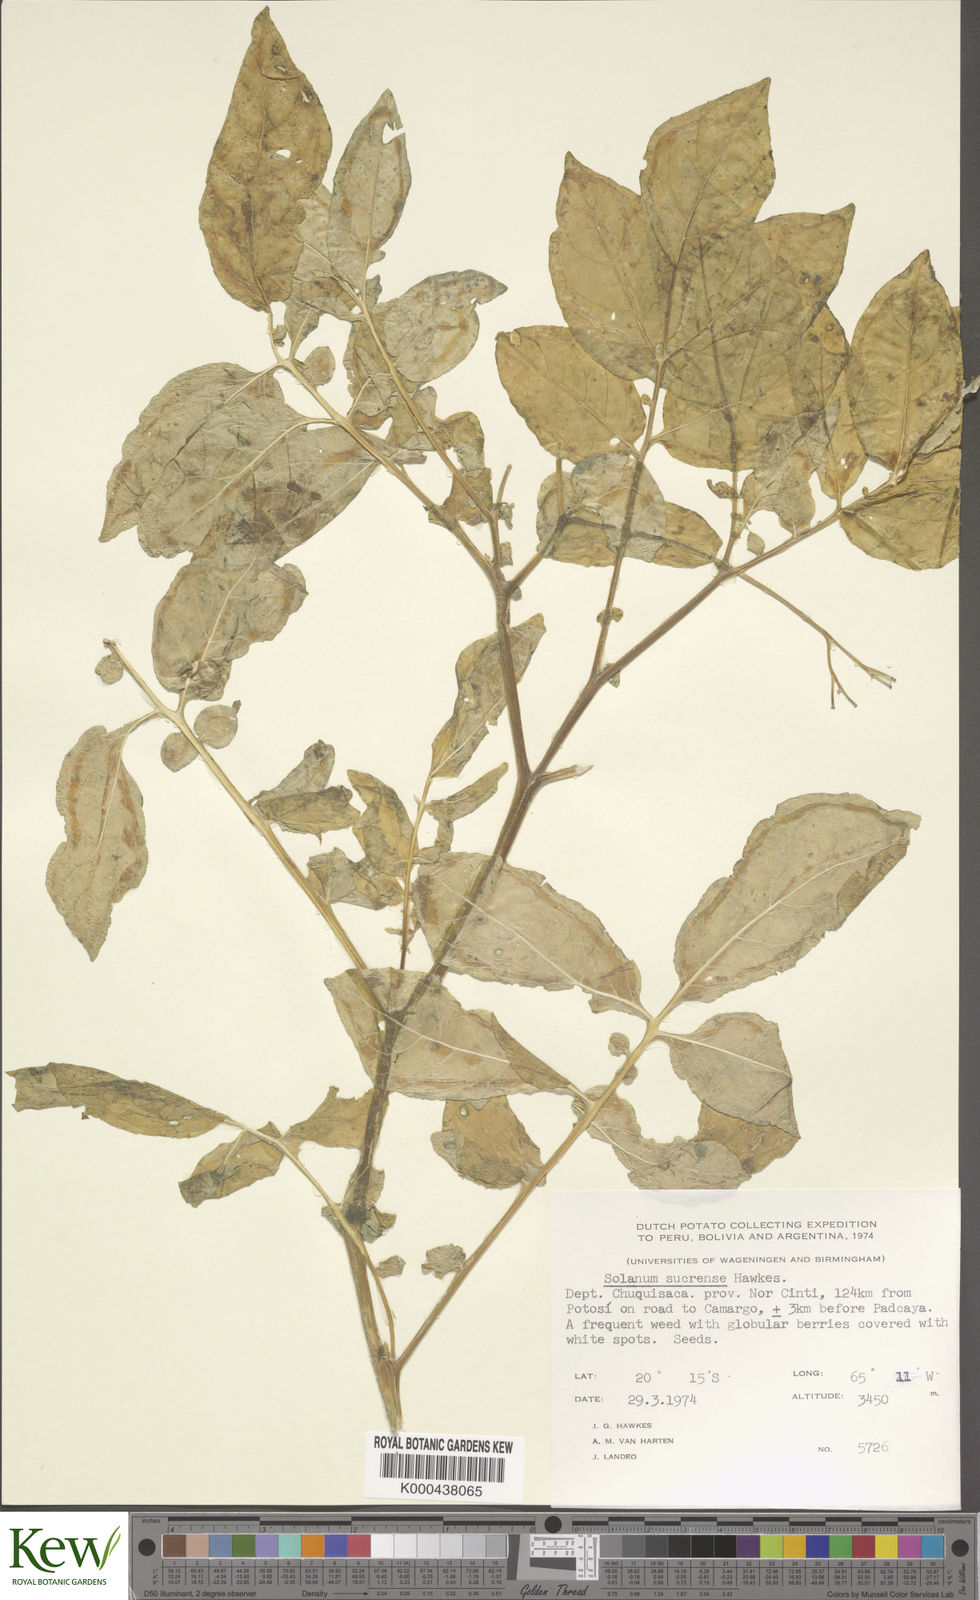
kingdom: Plantae
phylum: Tracheophyta
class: Magnoliopsida
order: Solanales
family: Solanaceae
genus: Solanum
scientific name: Solanum brevicaule
